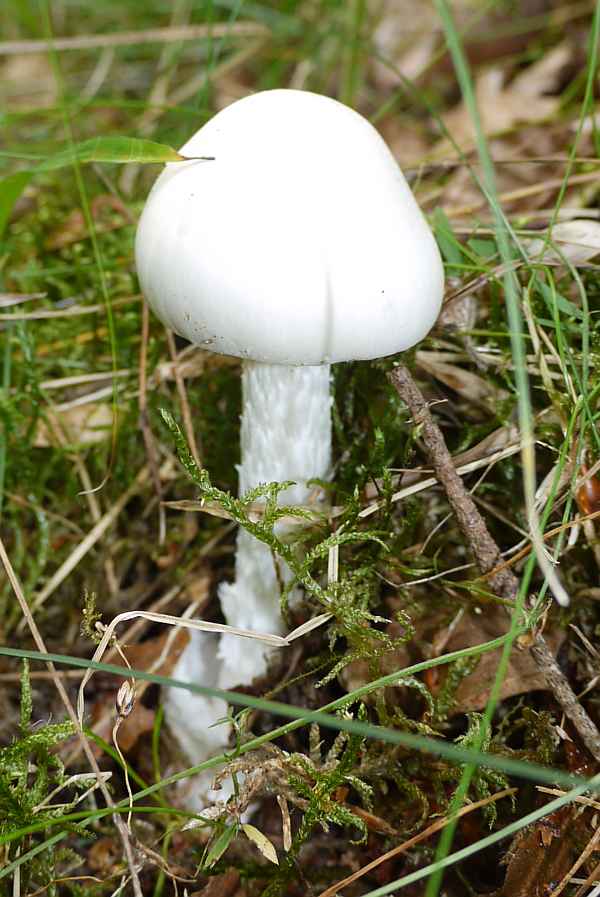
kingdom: Fungi
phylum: Basidiomycota
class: Agaricomycetes
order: Agaricales
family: Amanitaceae
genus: Amanita
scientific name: Amanita virosa
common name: snehvid fluesvamp
